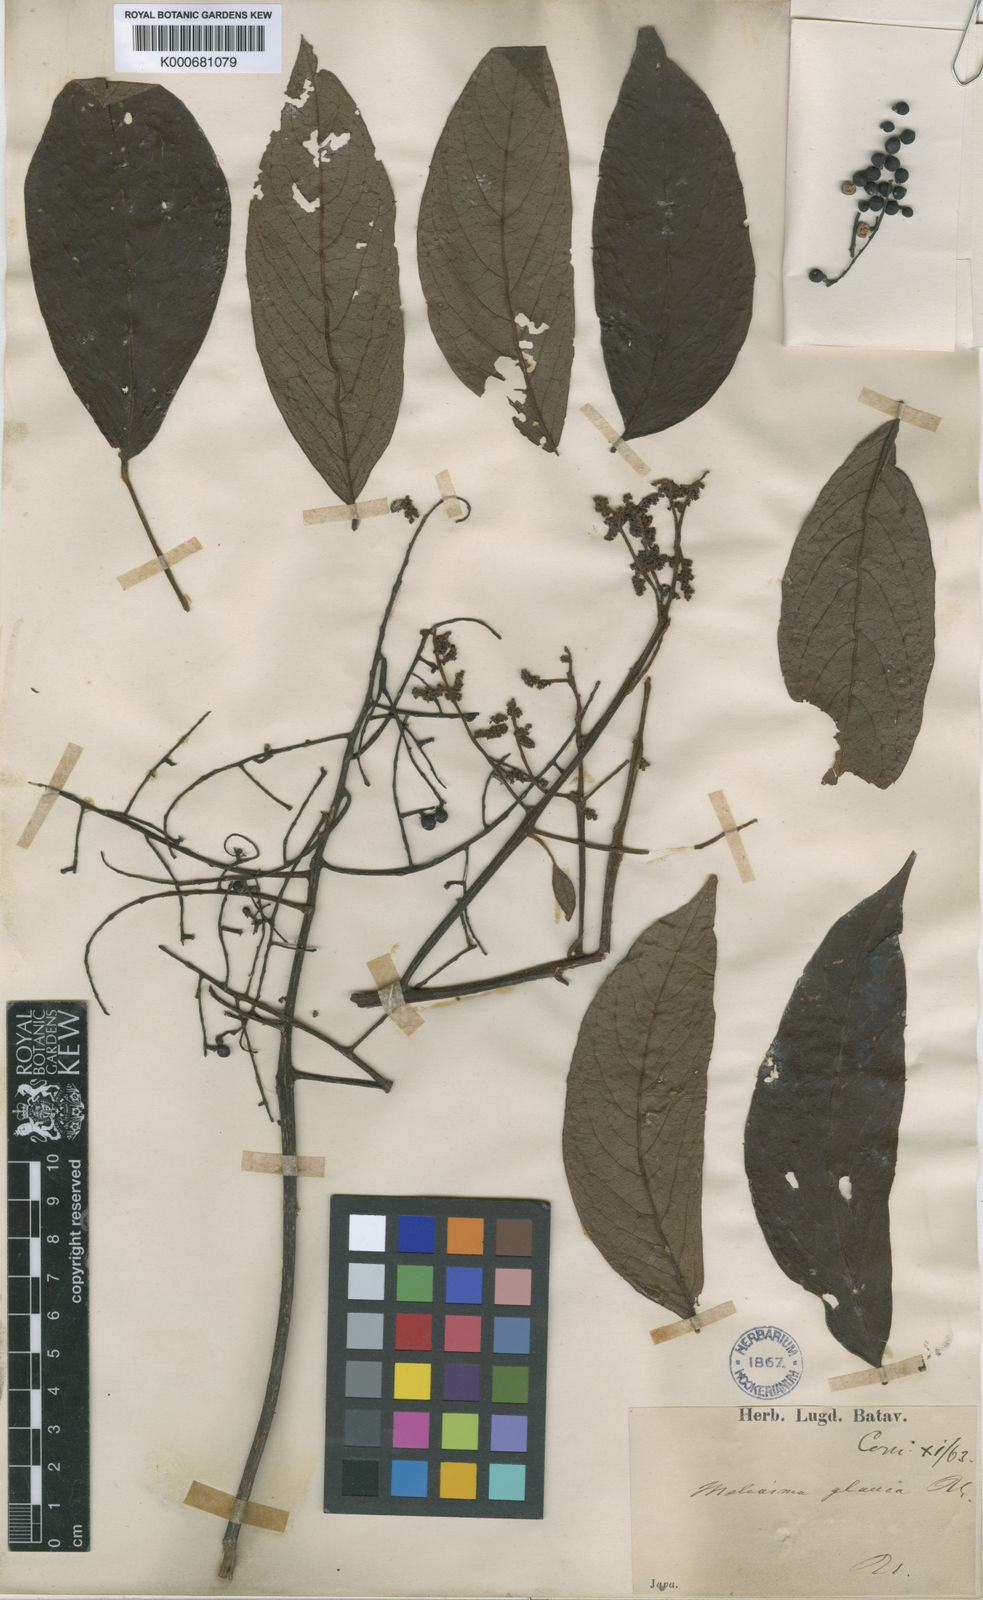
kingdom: Plantae
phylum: Tracheophyta
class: Magnoliopsida
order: Proteales
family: Sabiaceae
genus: Meliosma
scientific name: Meliosma pinnata
